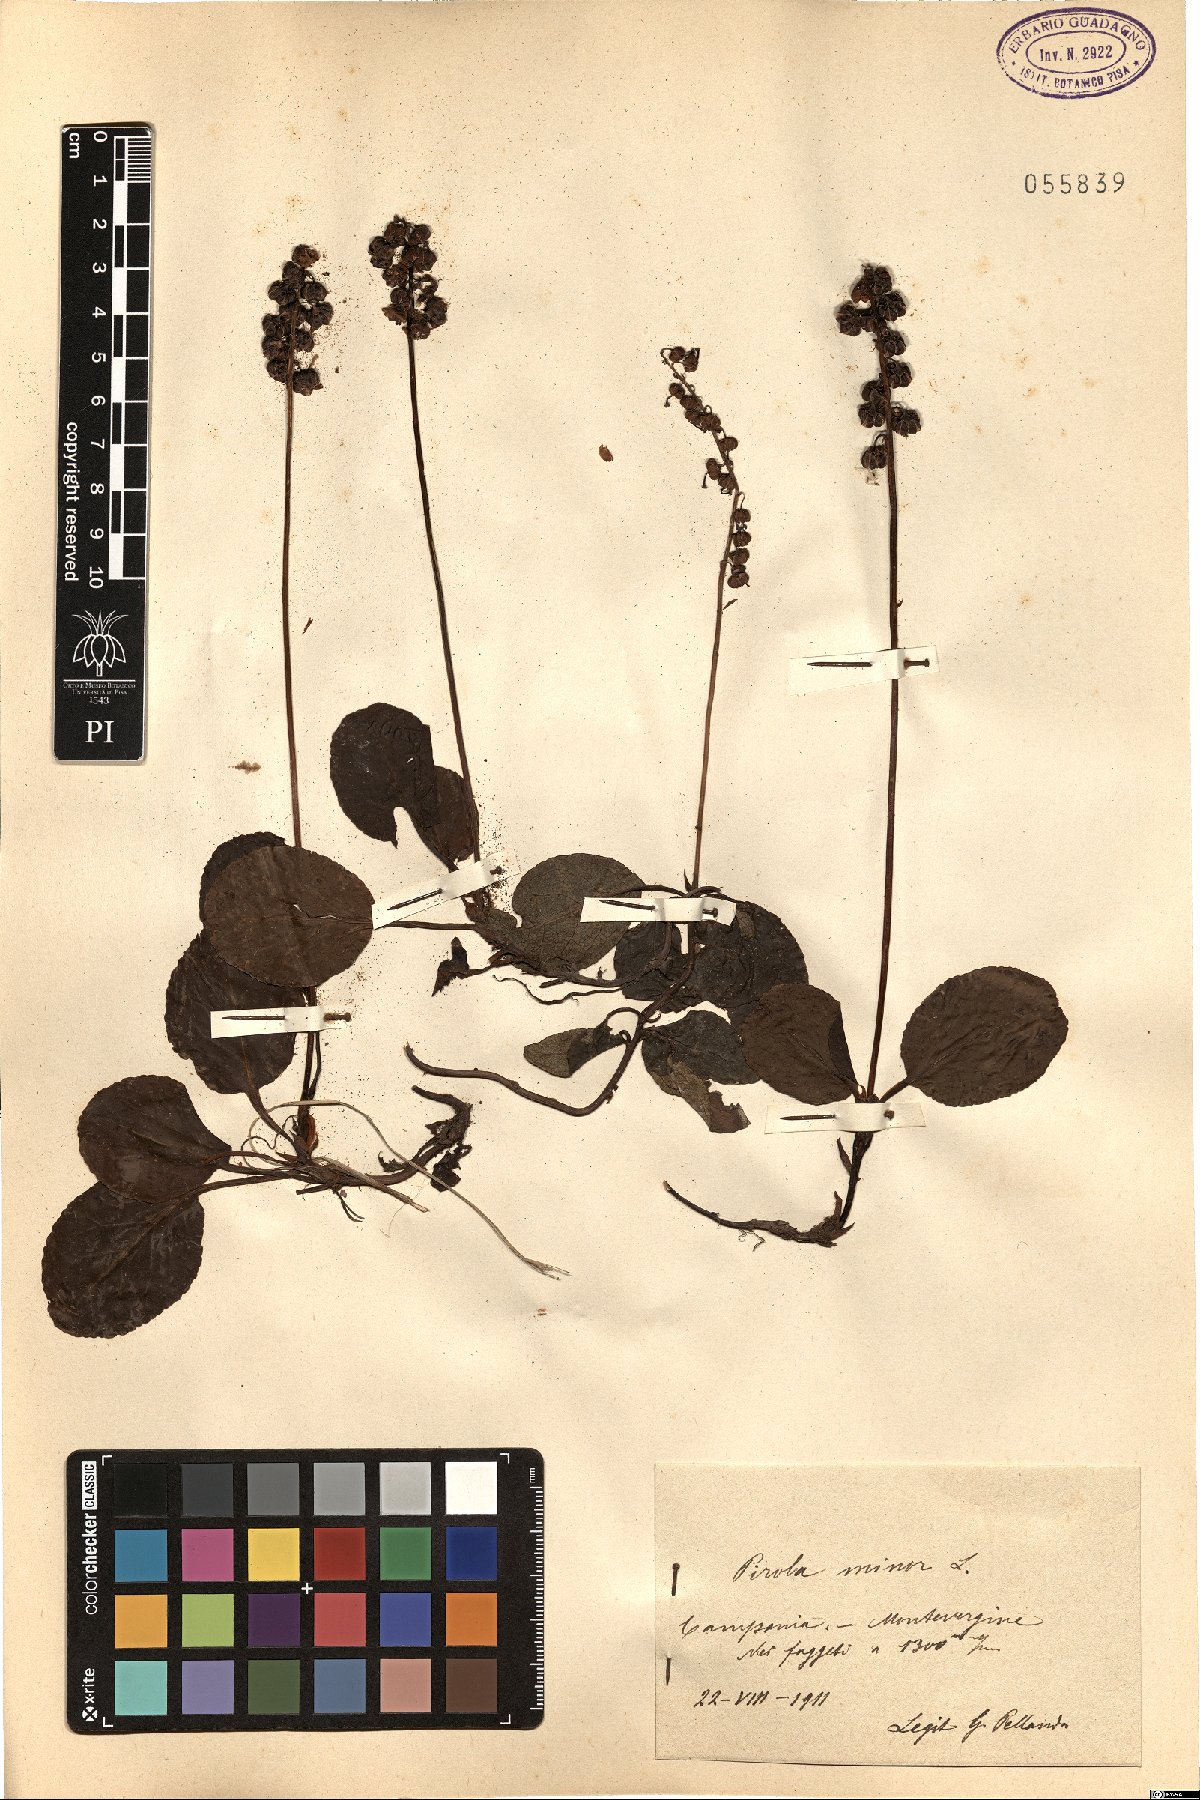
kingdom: Plantae
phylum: Tracheophyta
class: Magnoliopsida
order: Ericales
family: Ericaceae
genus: Pyrola
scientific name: Pyrola minor
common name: Common wintergreen
